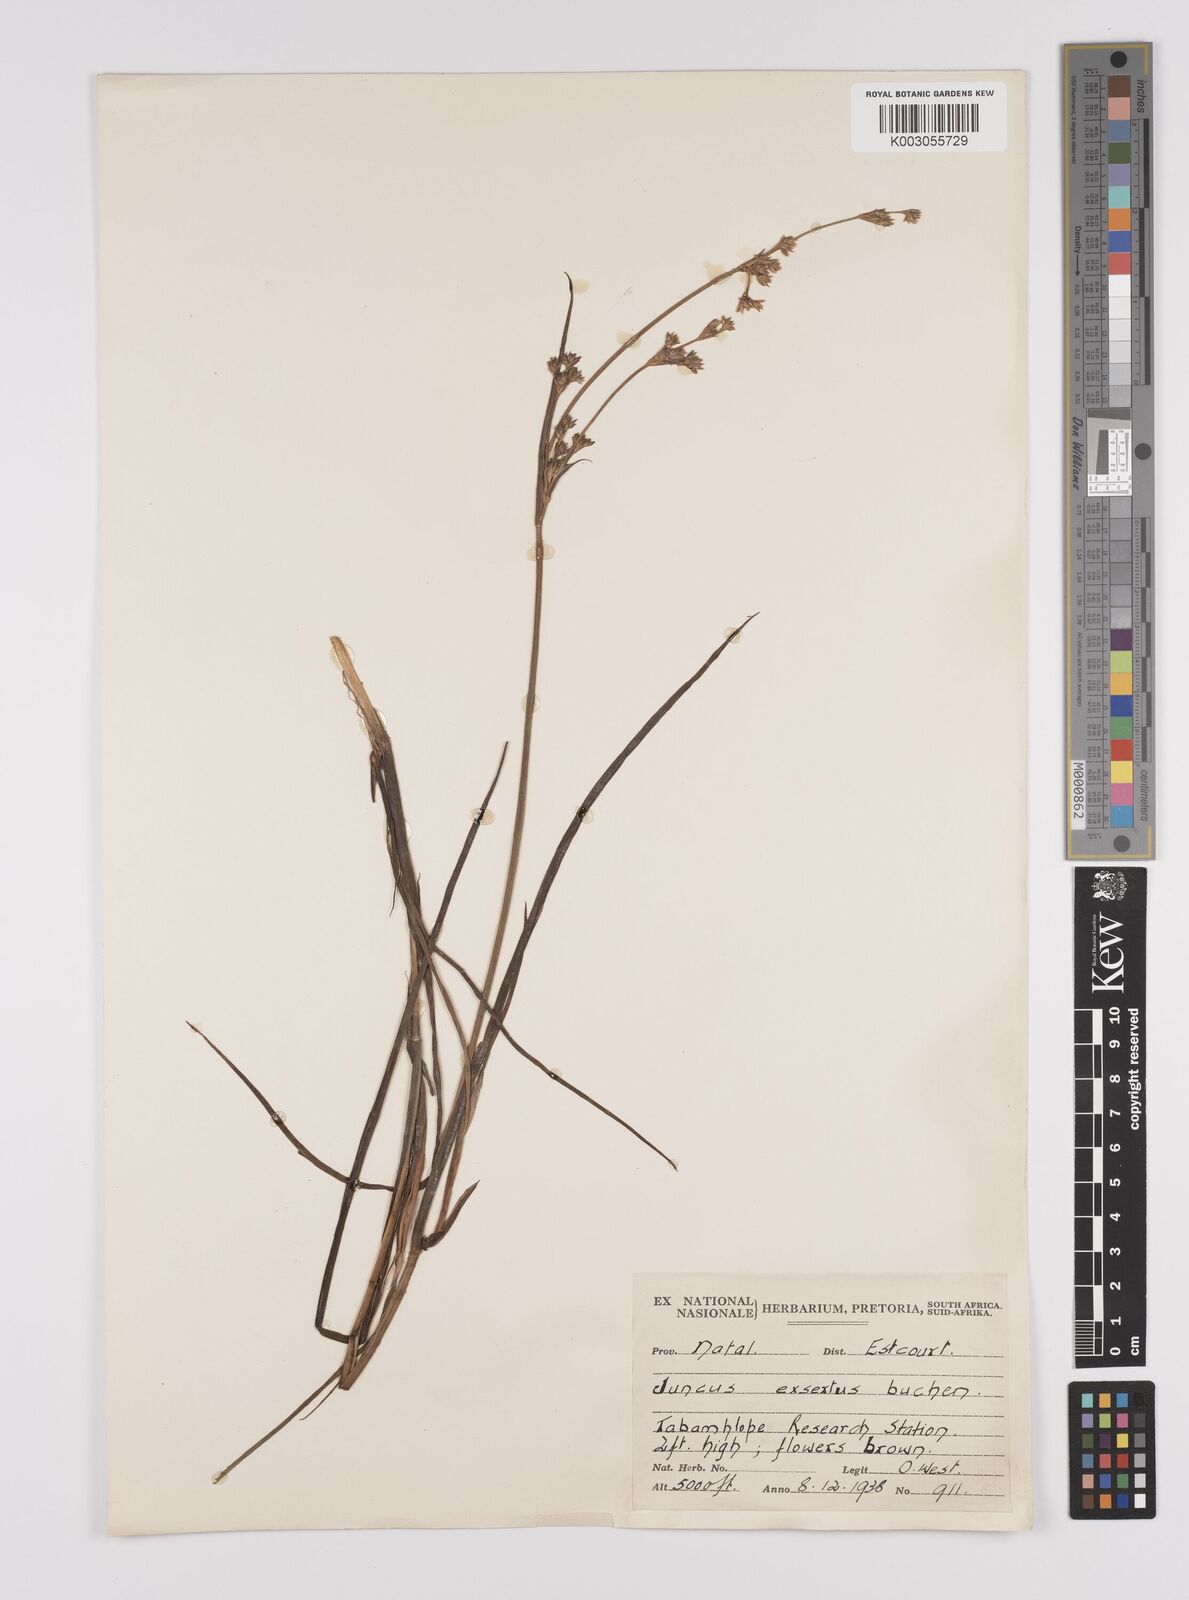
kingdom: Plantae
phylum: Tracheophyta
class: Liliopsida
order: Poales
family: Juncaceae
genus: Juncus
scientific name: Juncus exsertus
